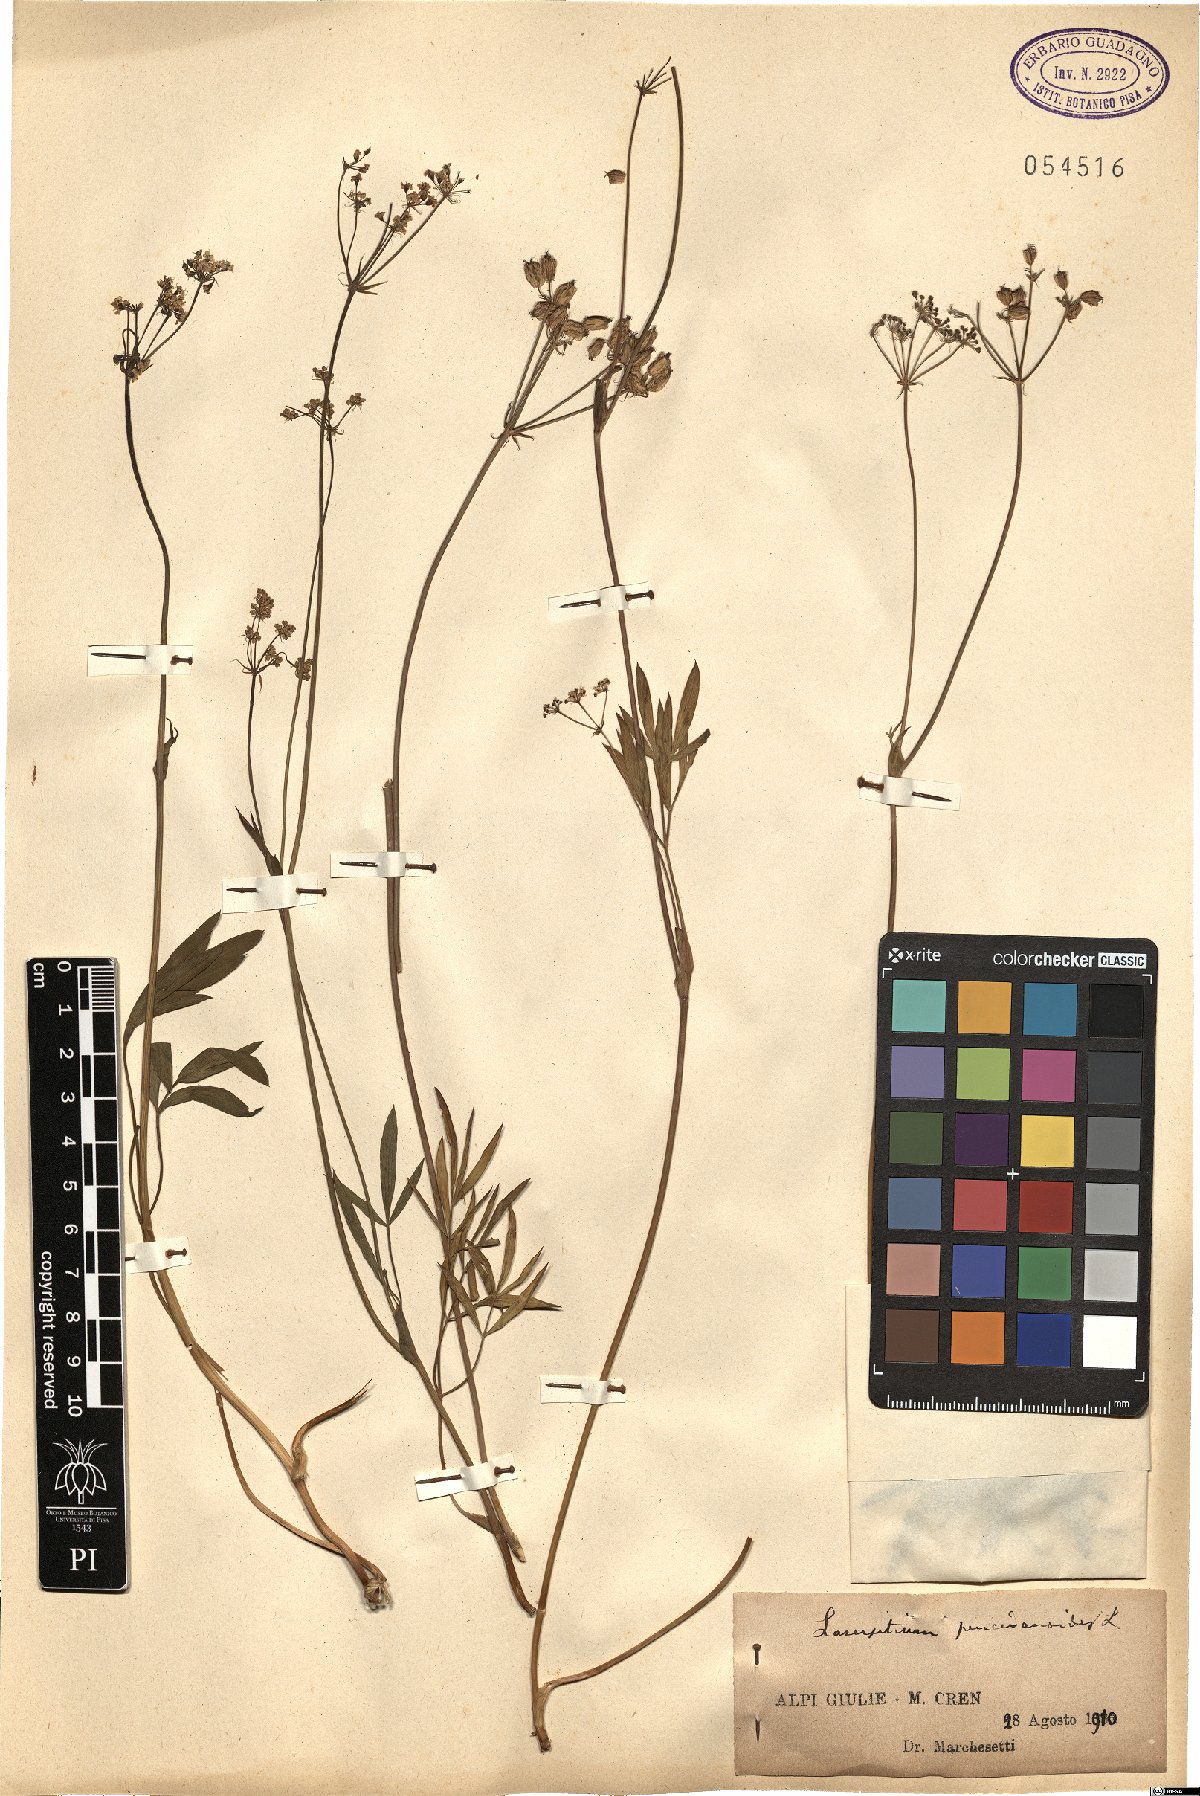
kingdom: Plantae
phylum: Tracheophyta
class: Magnoliopsida
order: Apiales
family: Apiaceae
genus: Laserpitium
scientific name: Laserpitium peucedanoides
